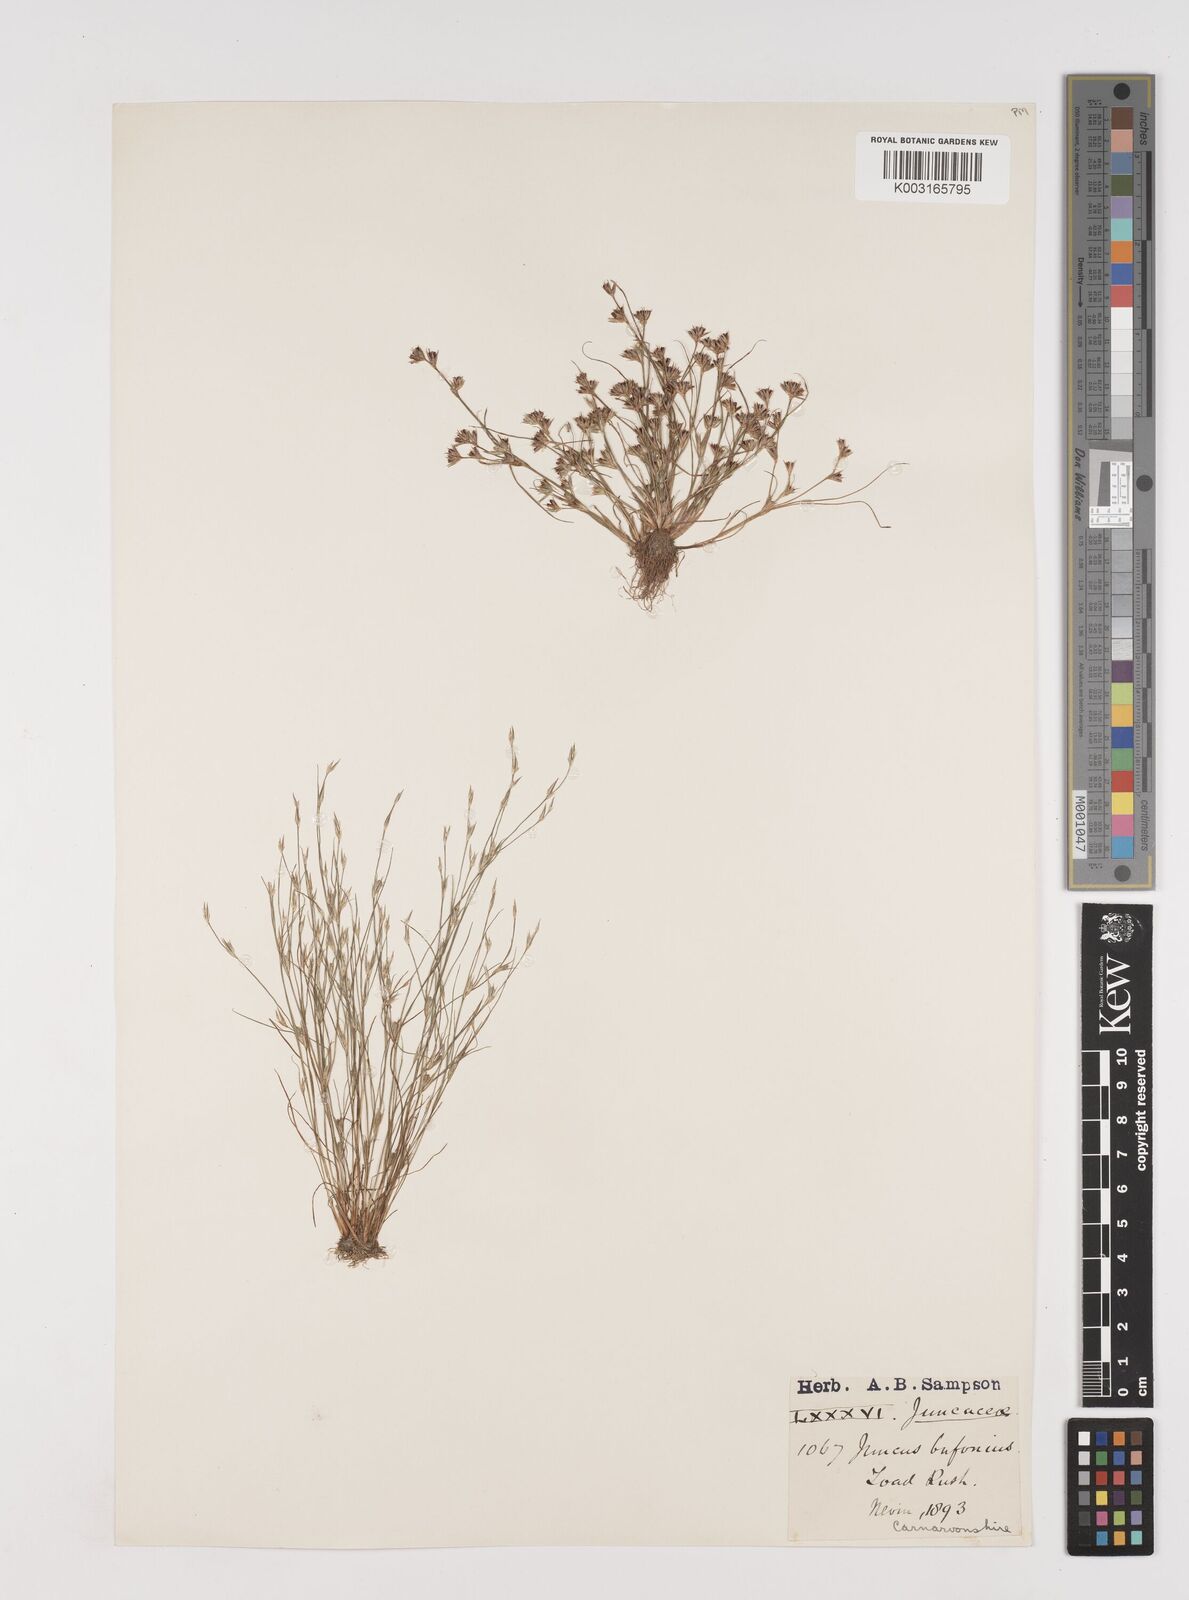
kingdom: Plantae
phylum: Tracheophyta
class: Liliopsida
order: Poales
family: Juncaceae
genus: Juncus
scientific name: Juncus bufonius
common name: Toad rush
